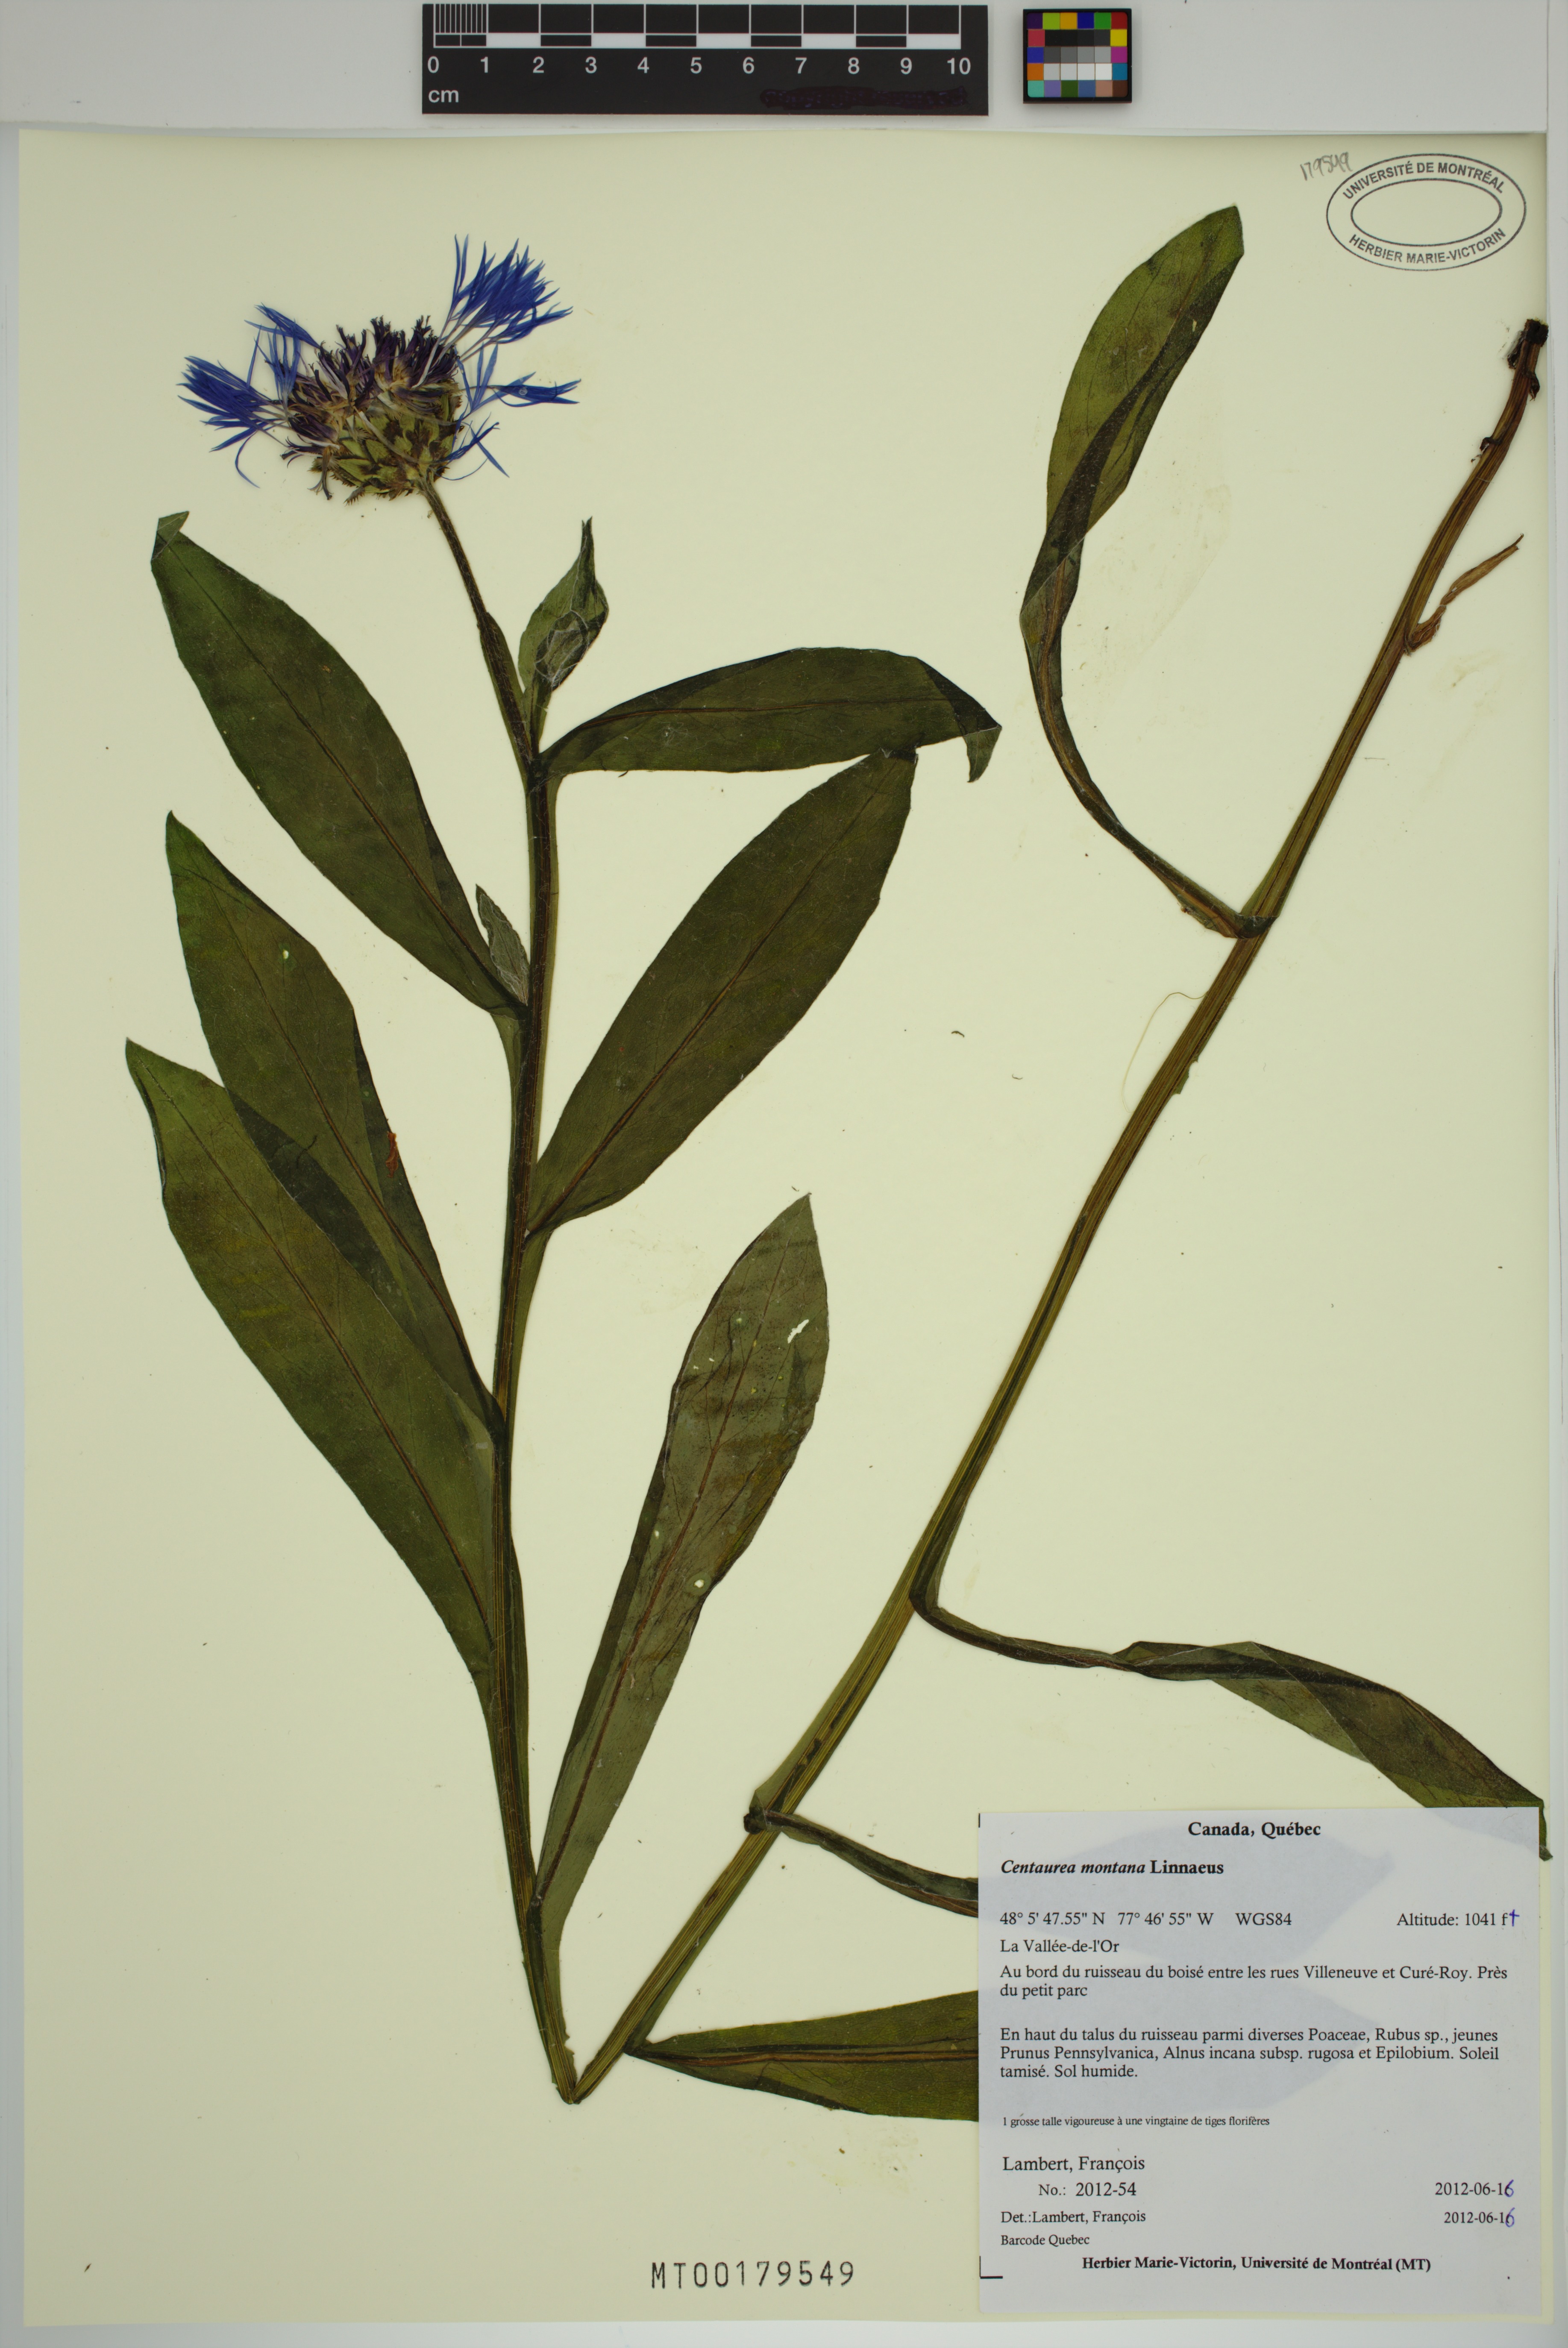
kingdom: Plantae
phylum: Tracheophyta
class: Magnoliopsida
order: Asterales
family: Asteraceae
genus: Centaurea
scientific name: Centaurea montana
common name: Perennial cornflower
